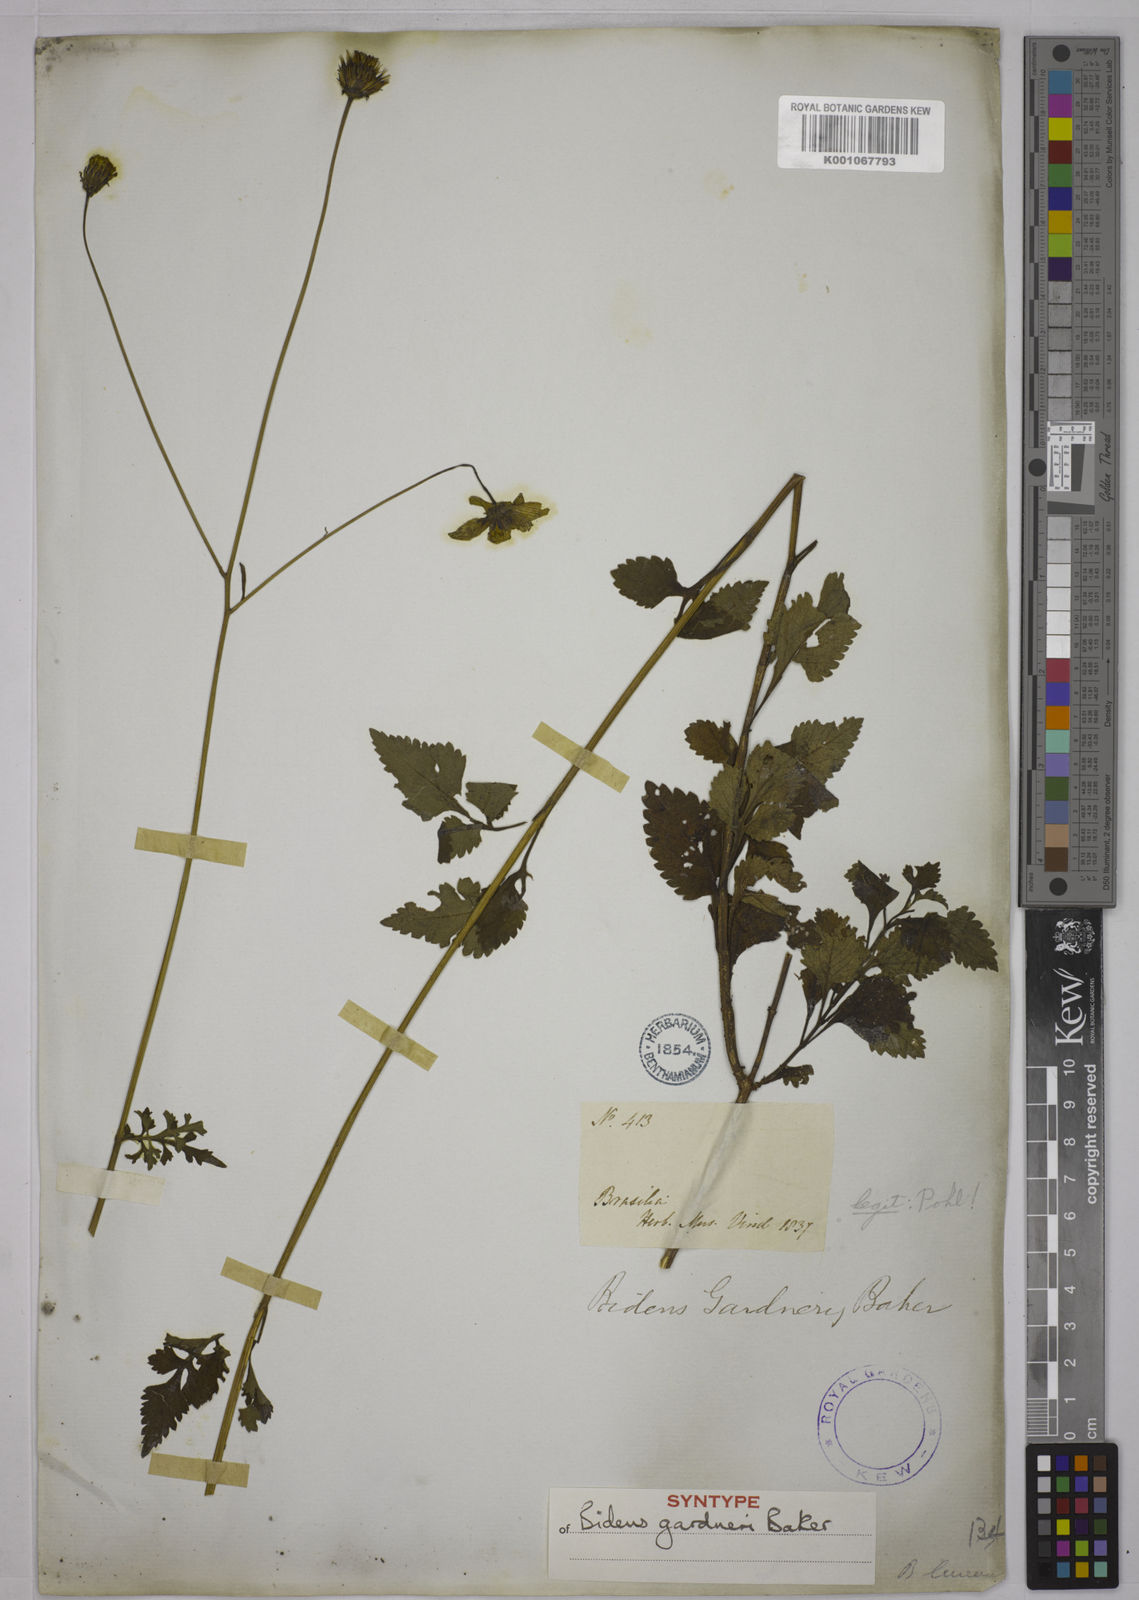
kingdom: Plantae
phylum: Tracheophyta
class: Magnoliopsida
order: Asterales
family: Asteraceae
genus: Bidens
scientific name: Bidens gardneri
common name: Ridge beggartick
